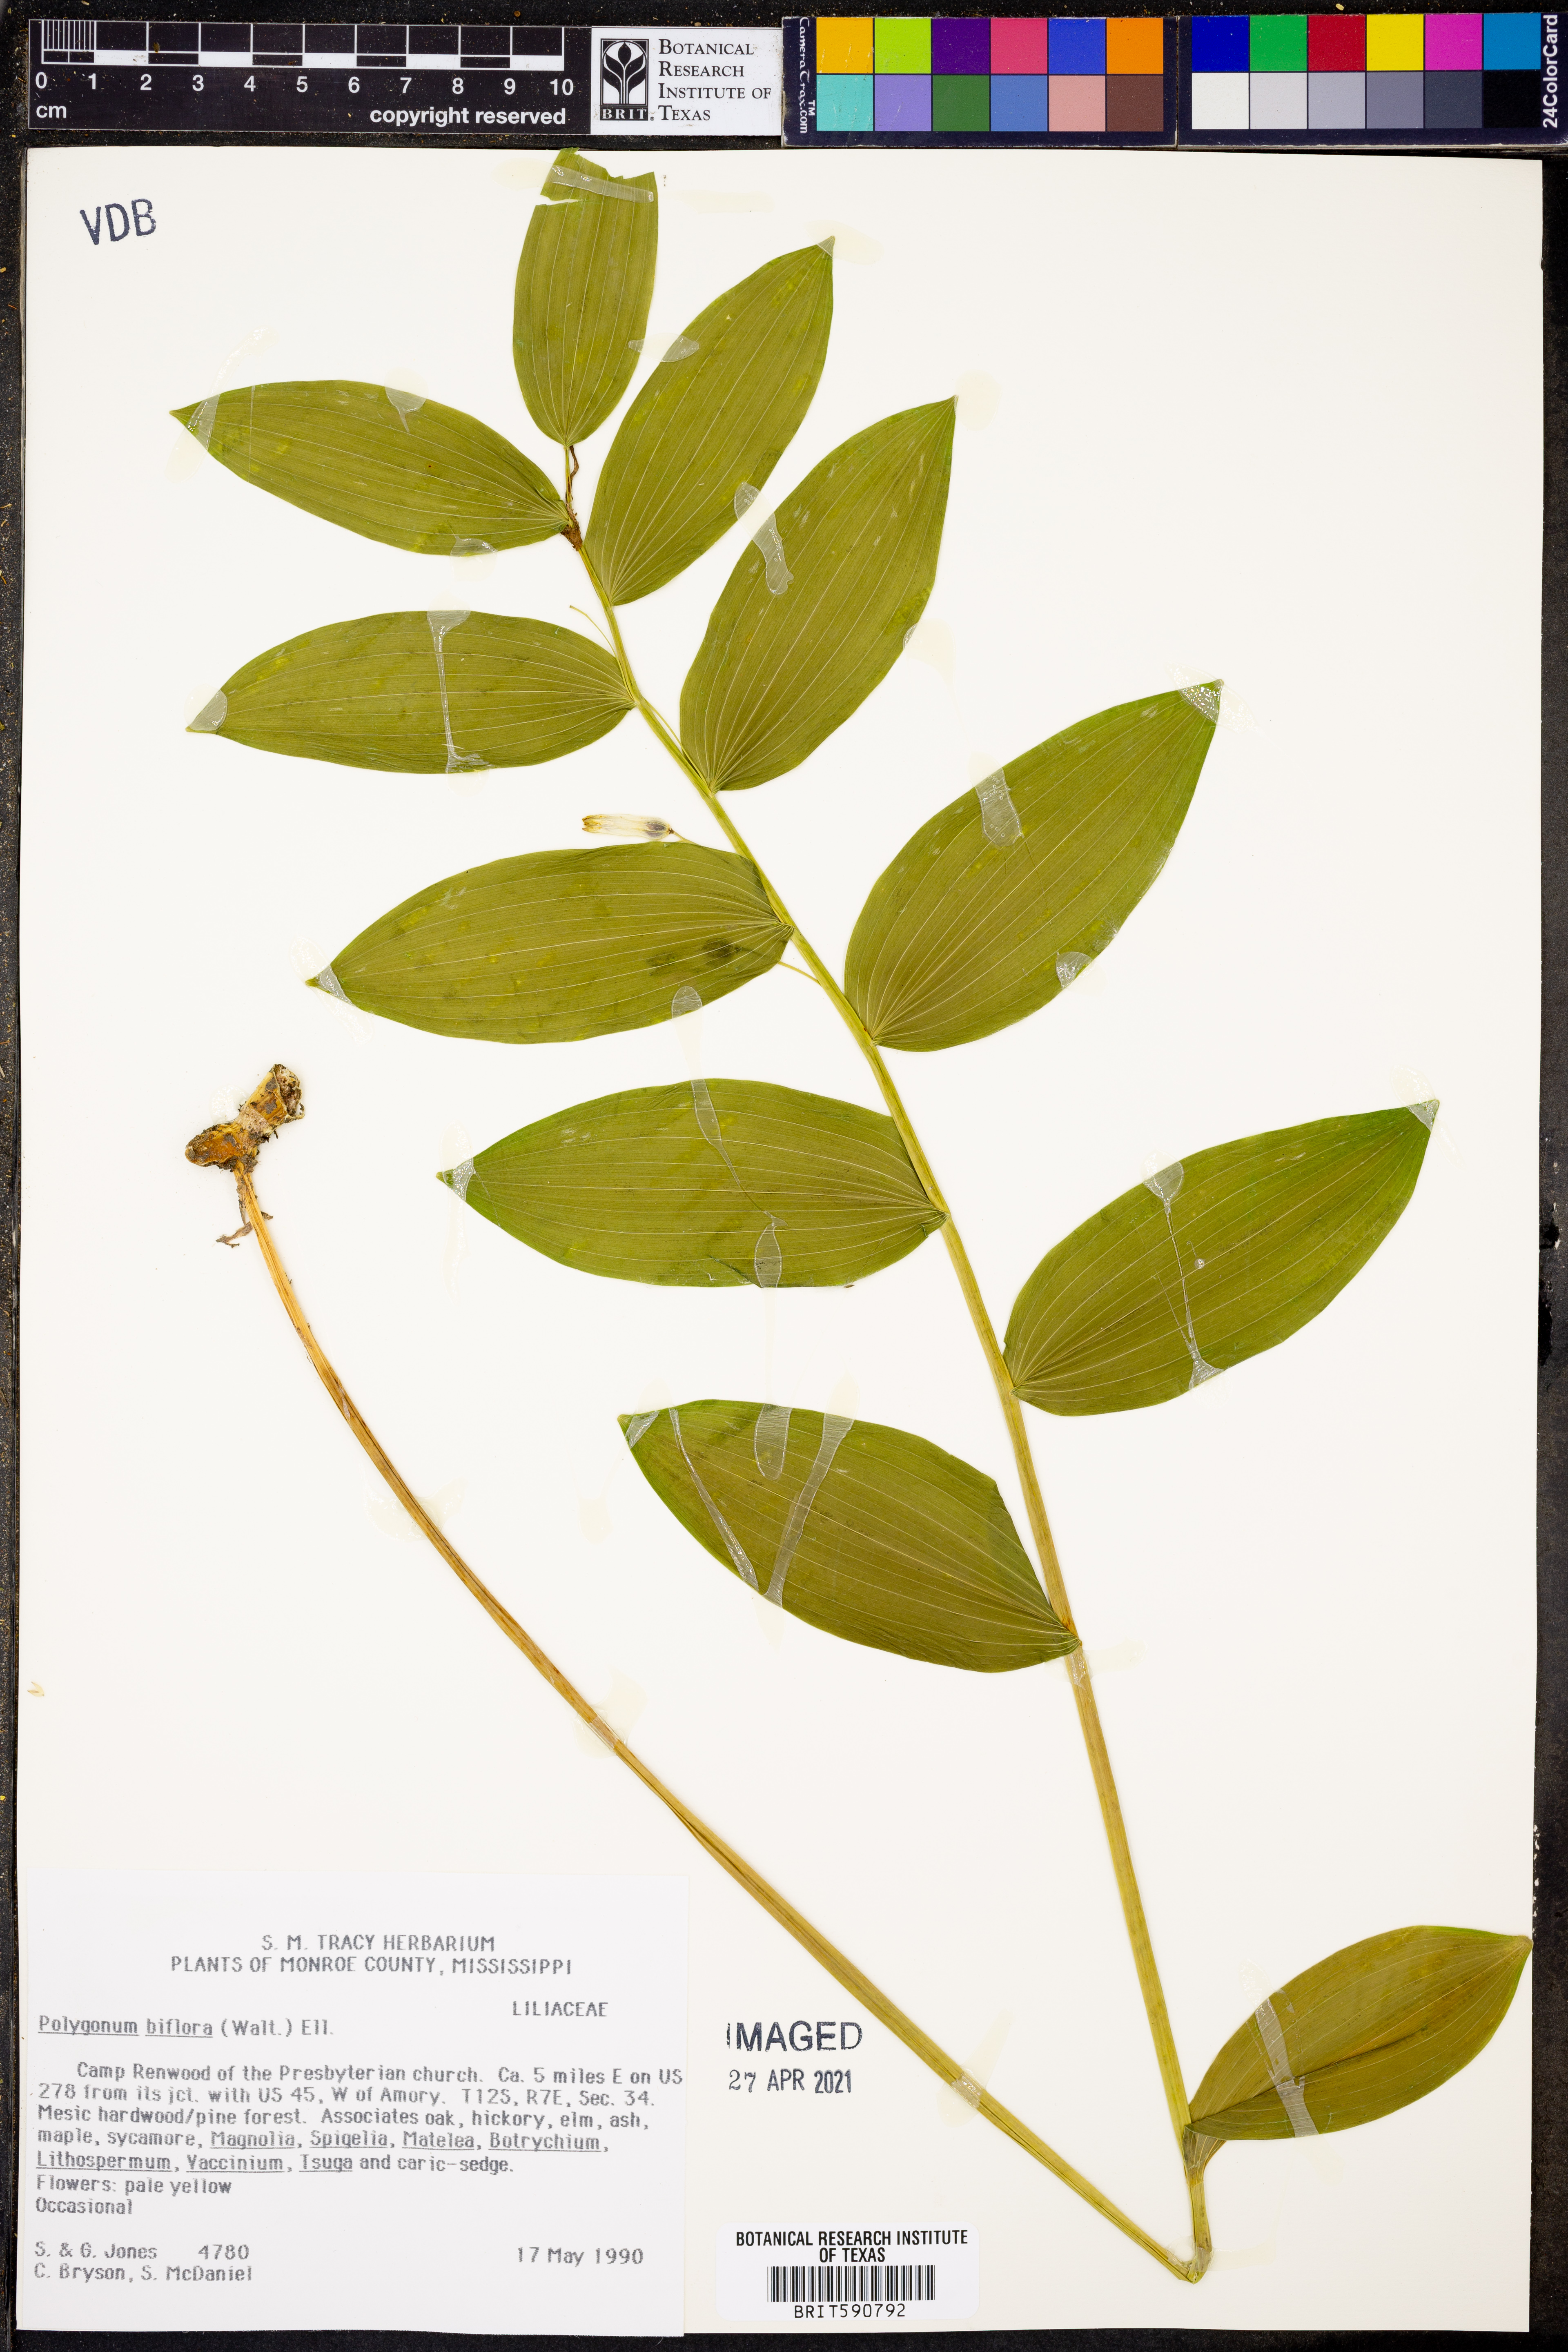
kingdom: Plantae
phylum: Tracheophyta
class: Magnoliopsida
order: Caryophyllales
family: Polygonaceae
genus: Polygonum
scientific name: Polygonum
